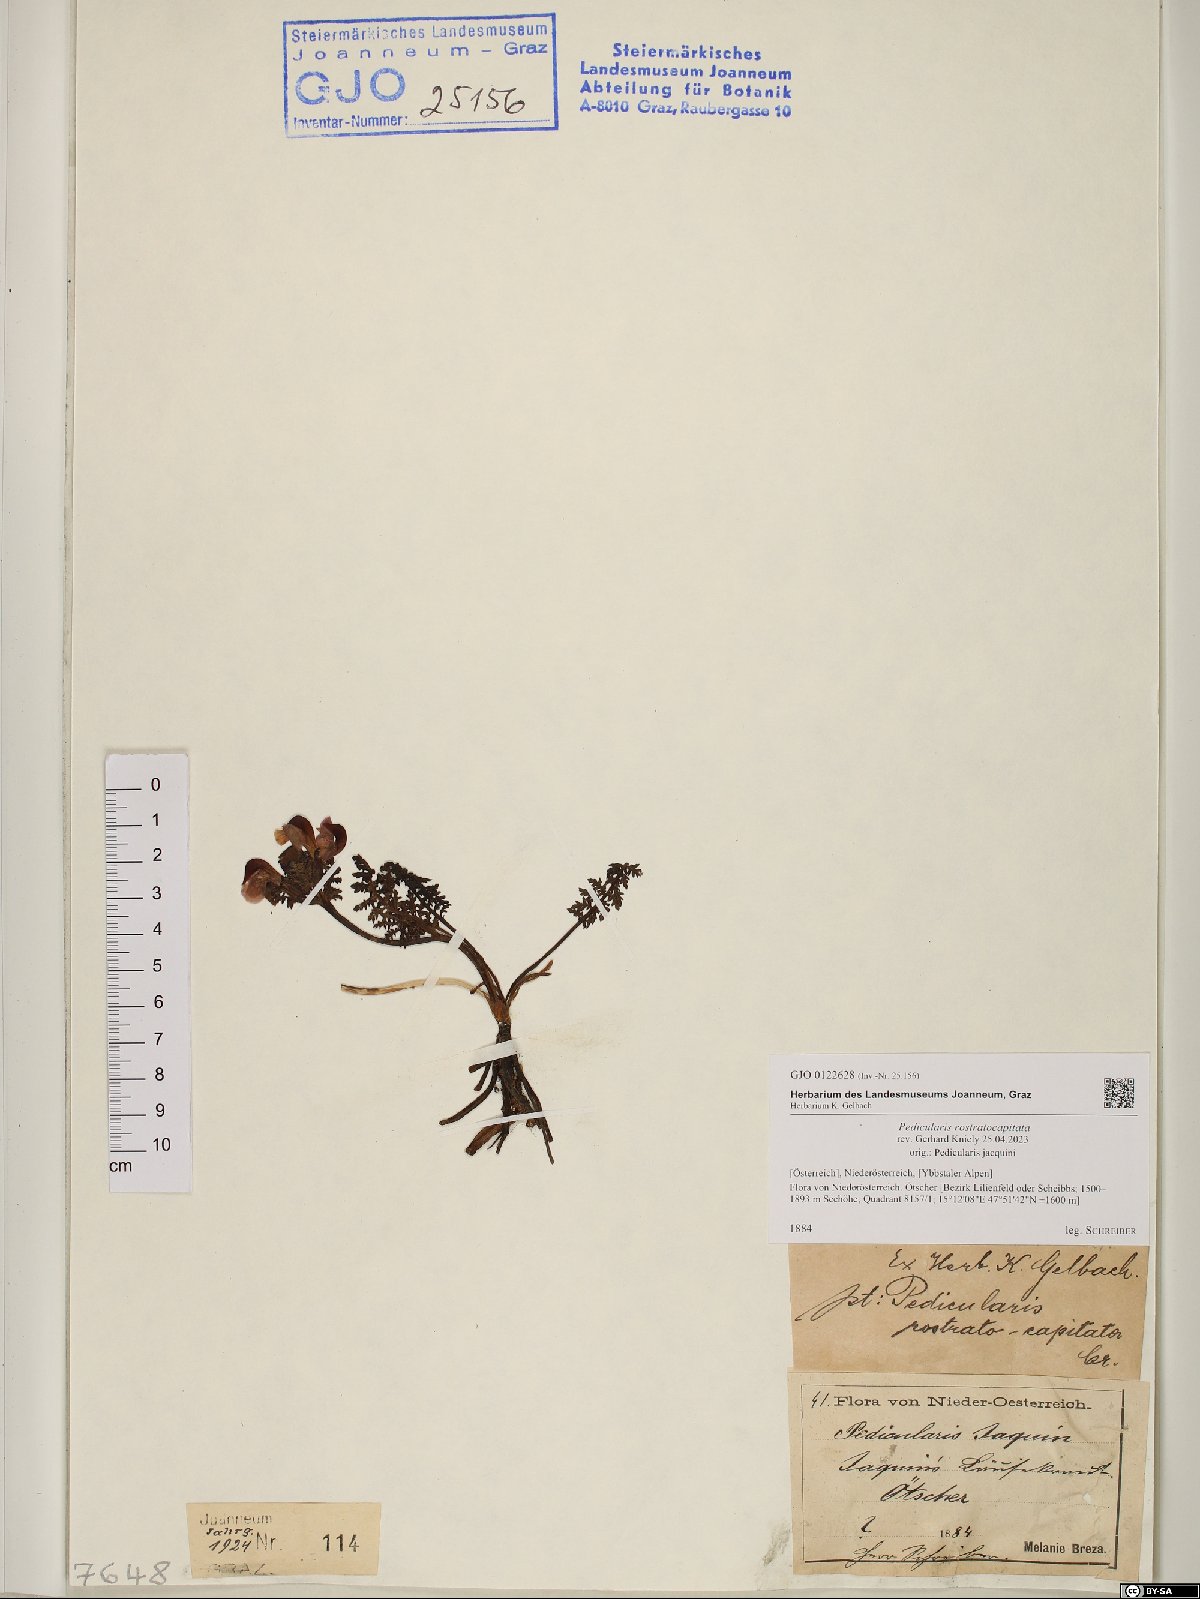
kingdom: Plantae
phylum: Tracheophyta
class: Magnoliopsida
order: Lamiales
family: Orobanchaceae
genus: Pedicularis
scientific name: Pedicularis rostratocapitata
